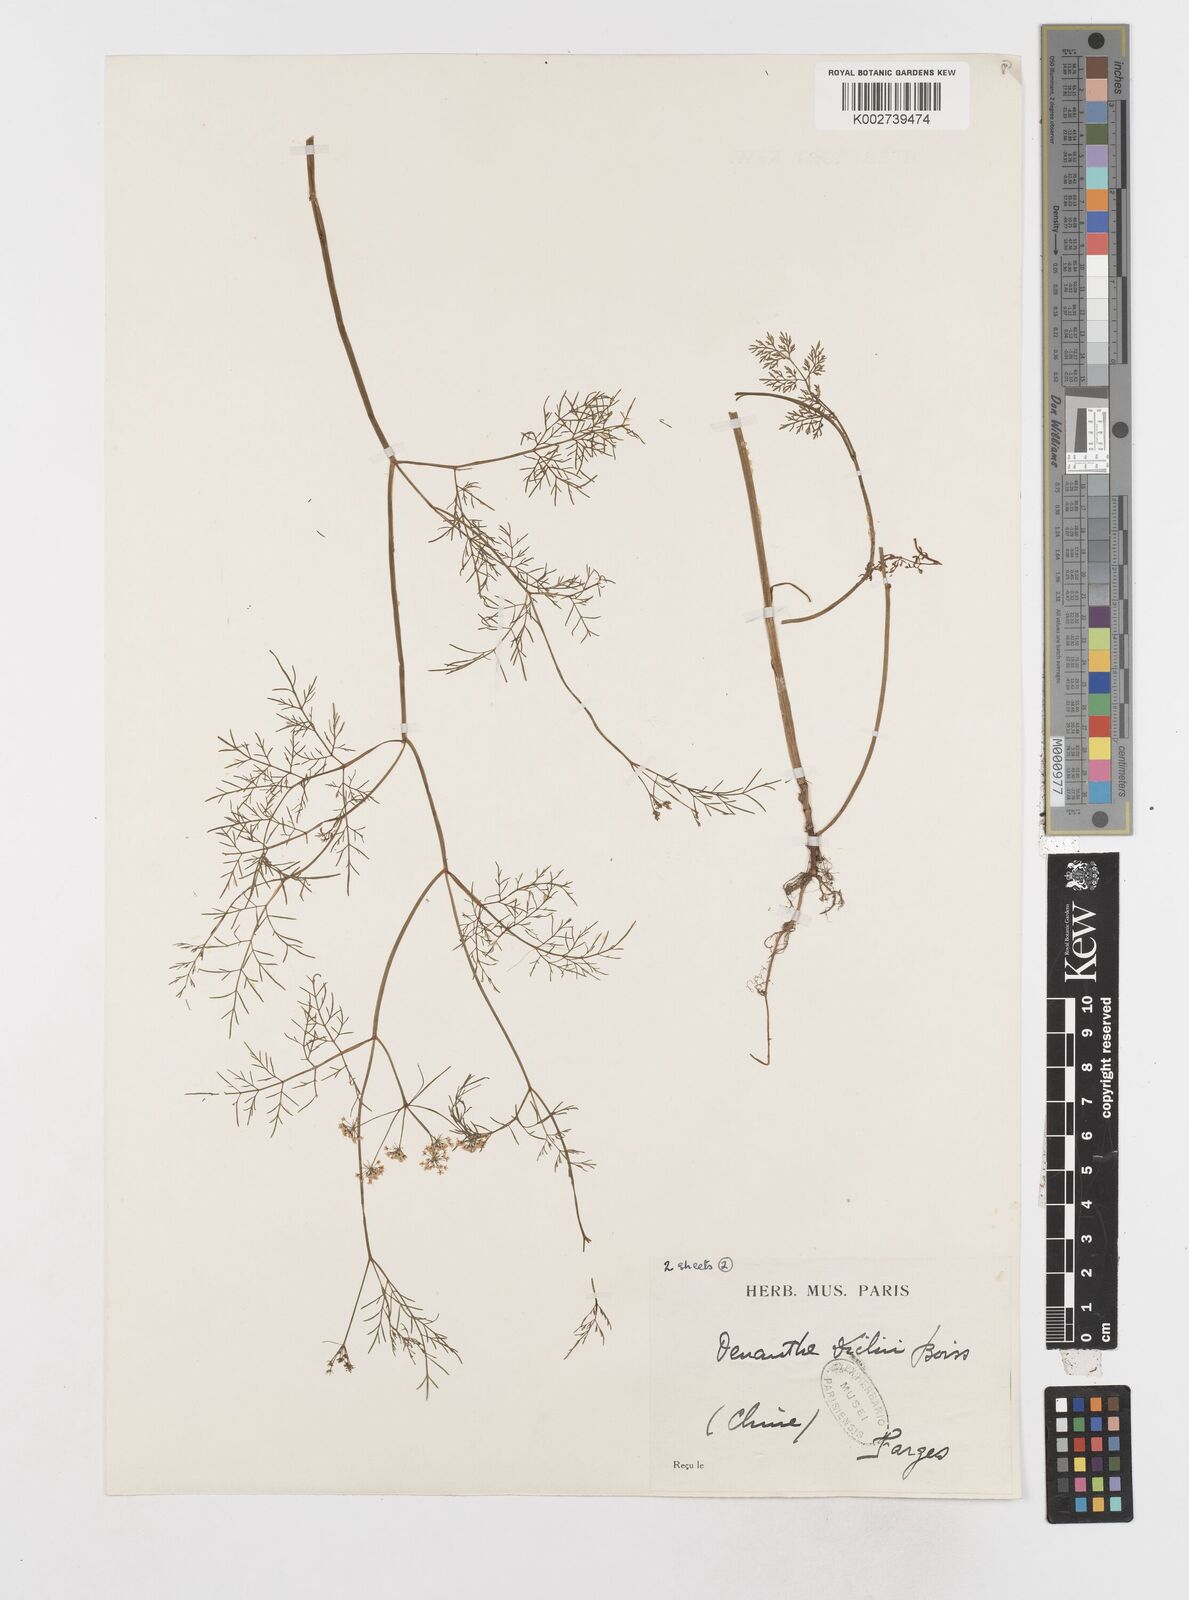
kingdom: Plantae
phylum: Tracheophyta
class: Magnoliopsida
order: Apiales
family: Apiaceae
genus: Oenanthe
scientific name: Oenanthe dielsii
